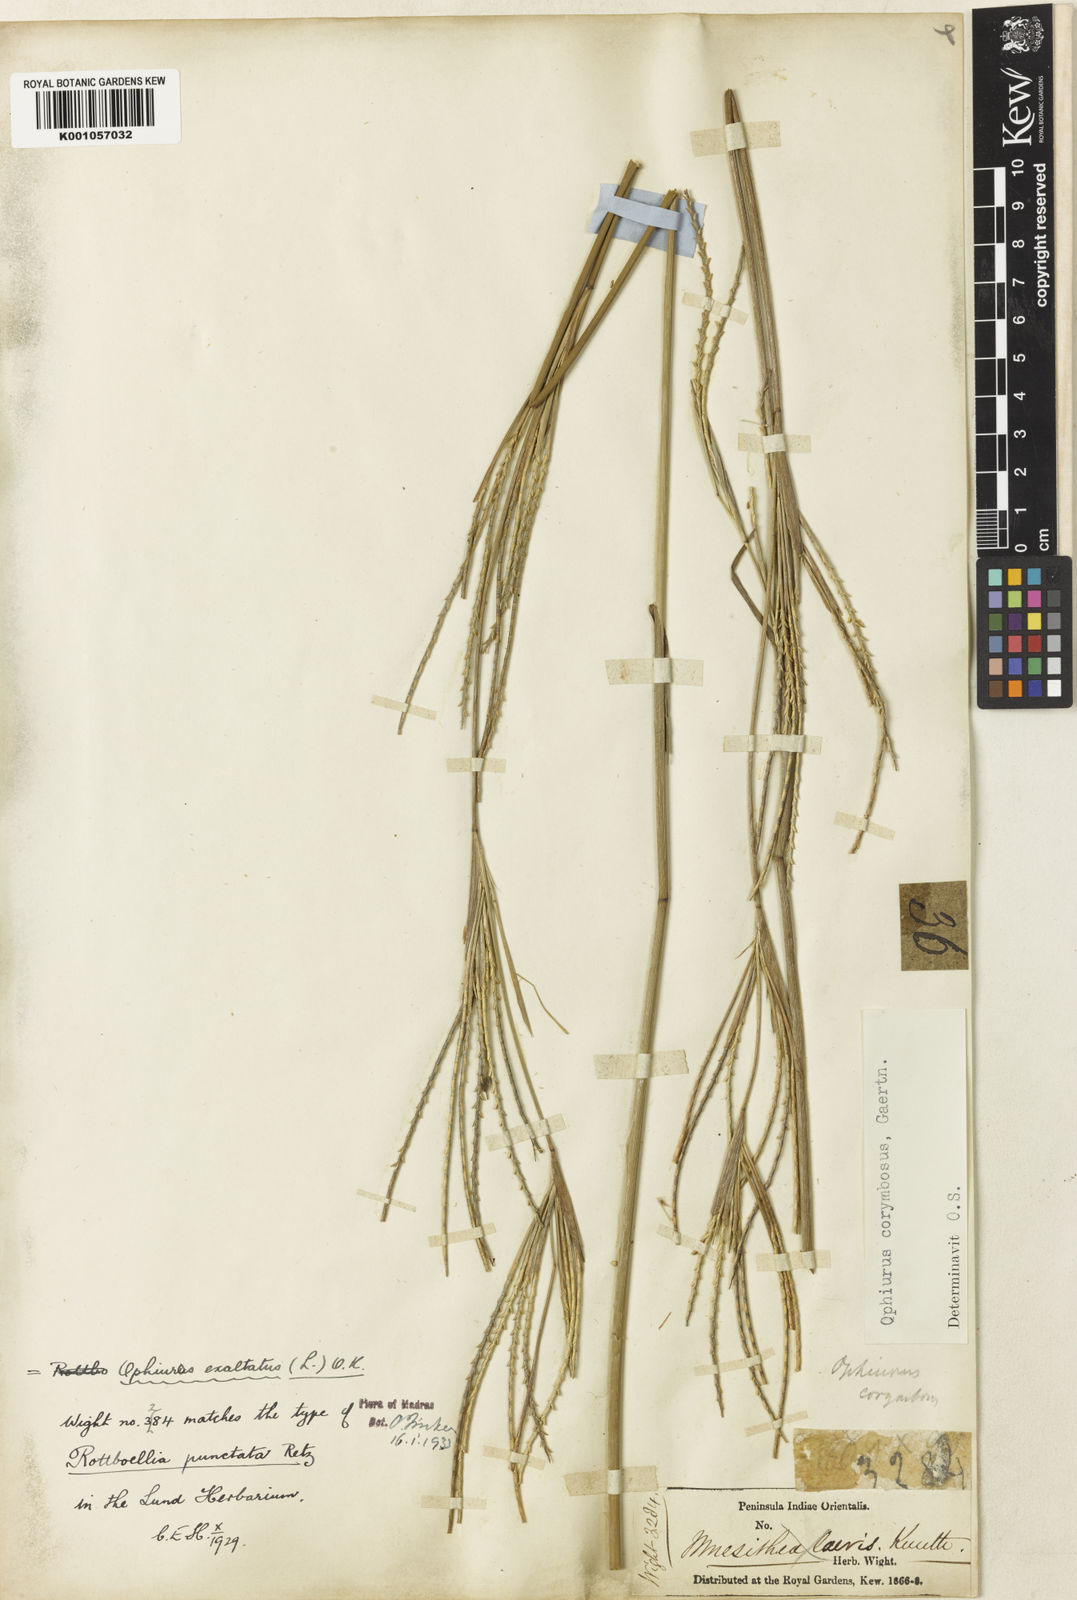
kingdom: Plantae
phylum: Tracheophyta
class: Liliopsida
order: Poales
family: Poaceae
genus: Ophiuros
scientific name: Ophiuros exaltatus
